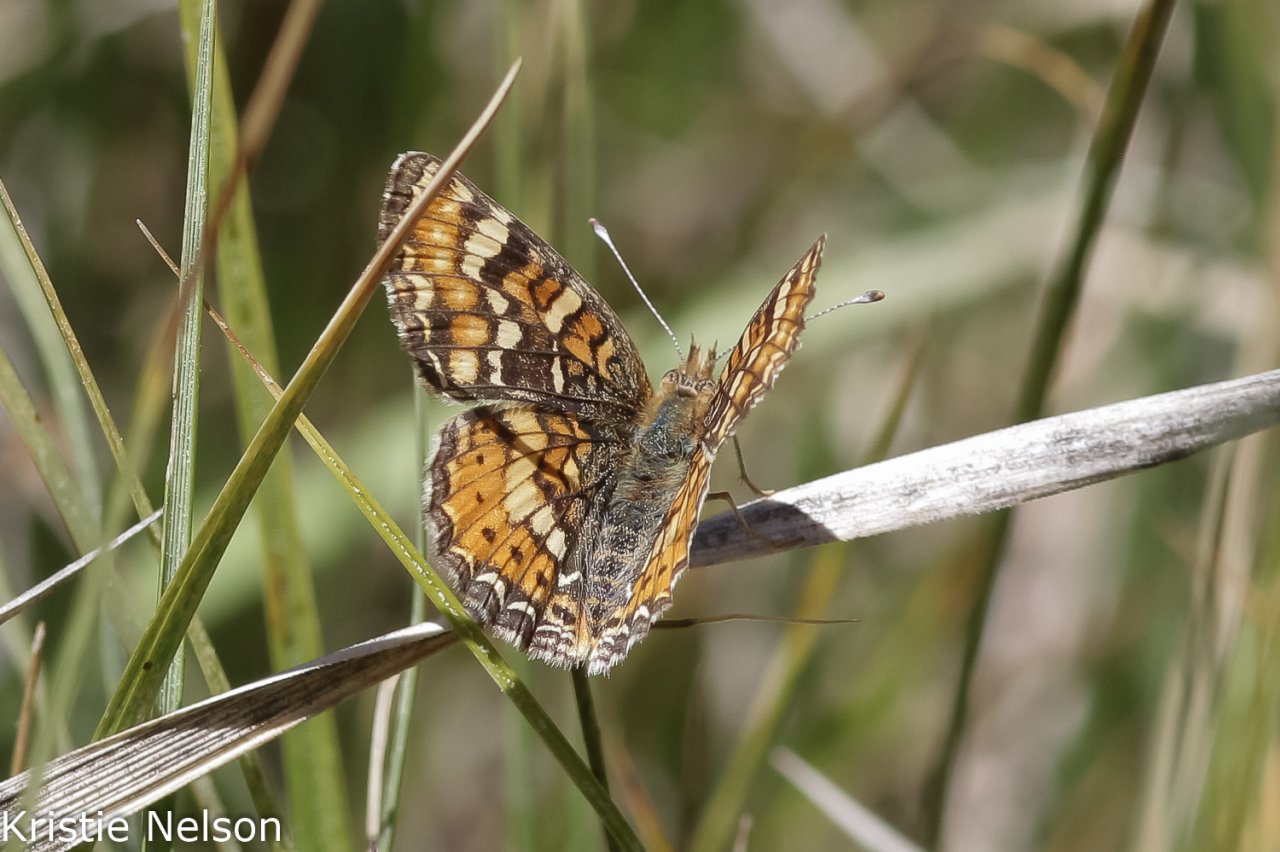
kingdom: Animalia
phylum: Arthropoda
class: Insecta
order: Lepidoptera
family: Nymphalidae
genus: Phyciodes
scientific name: Phyciodes tharos
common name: Field Crescent
